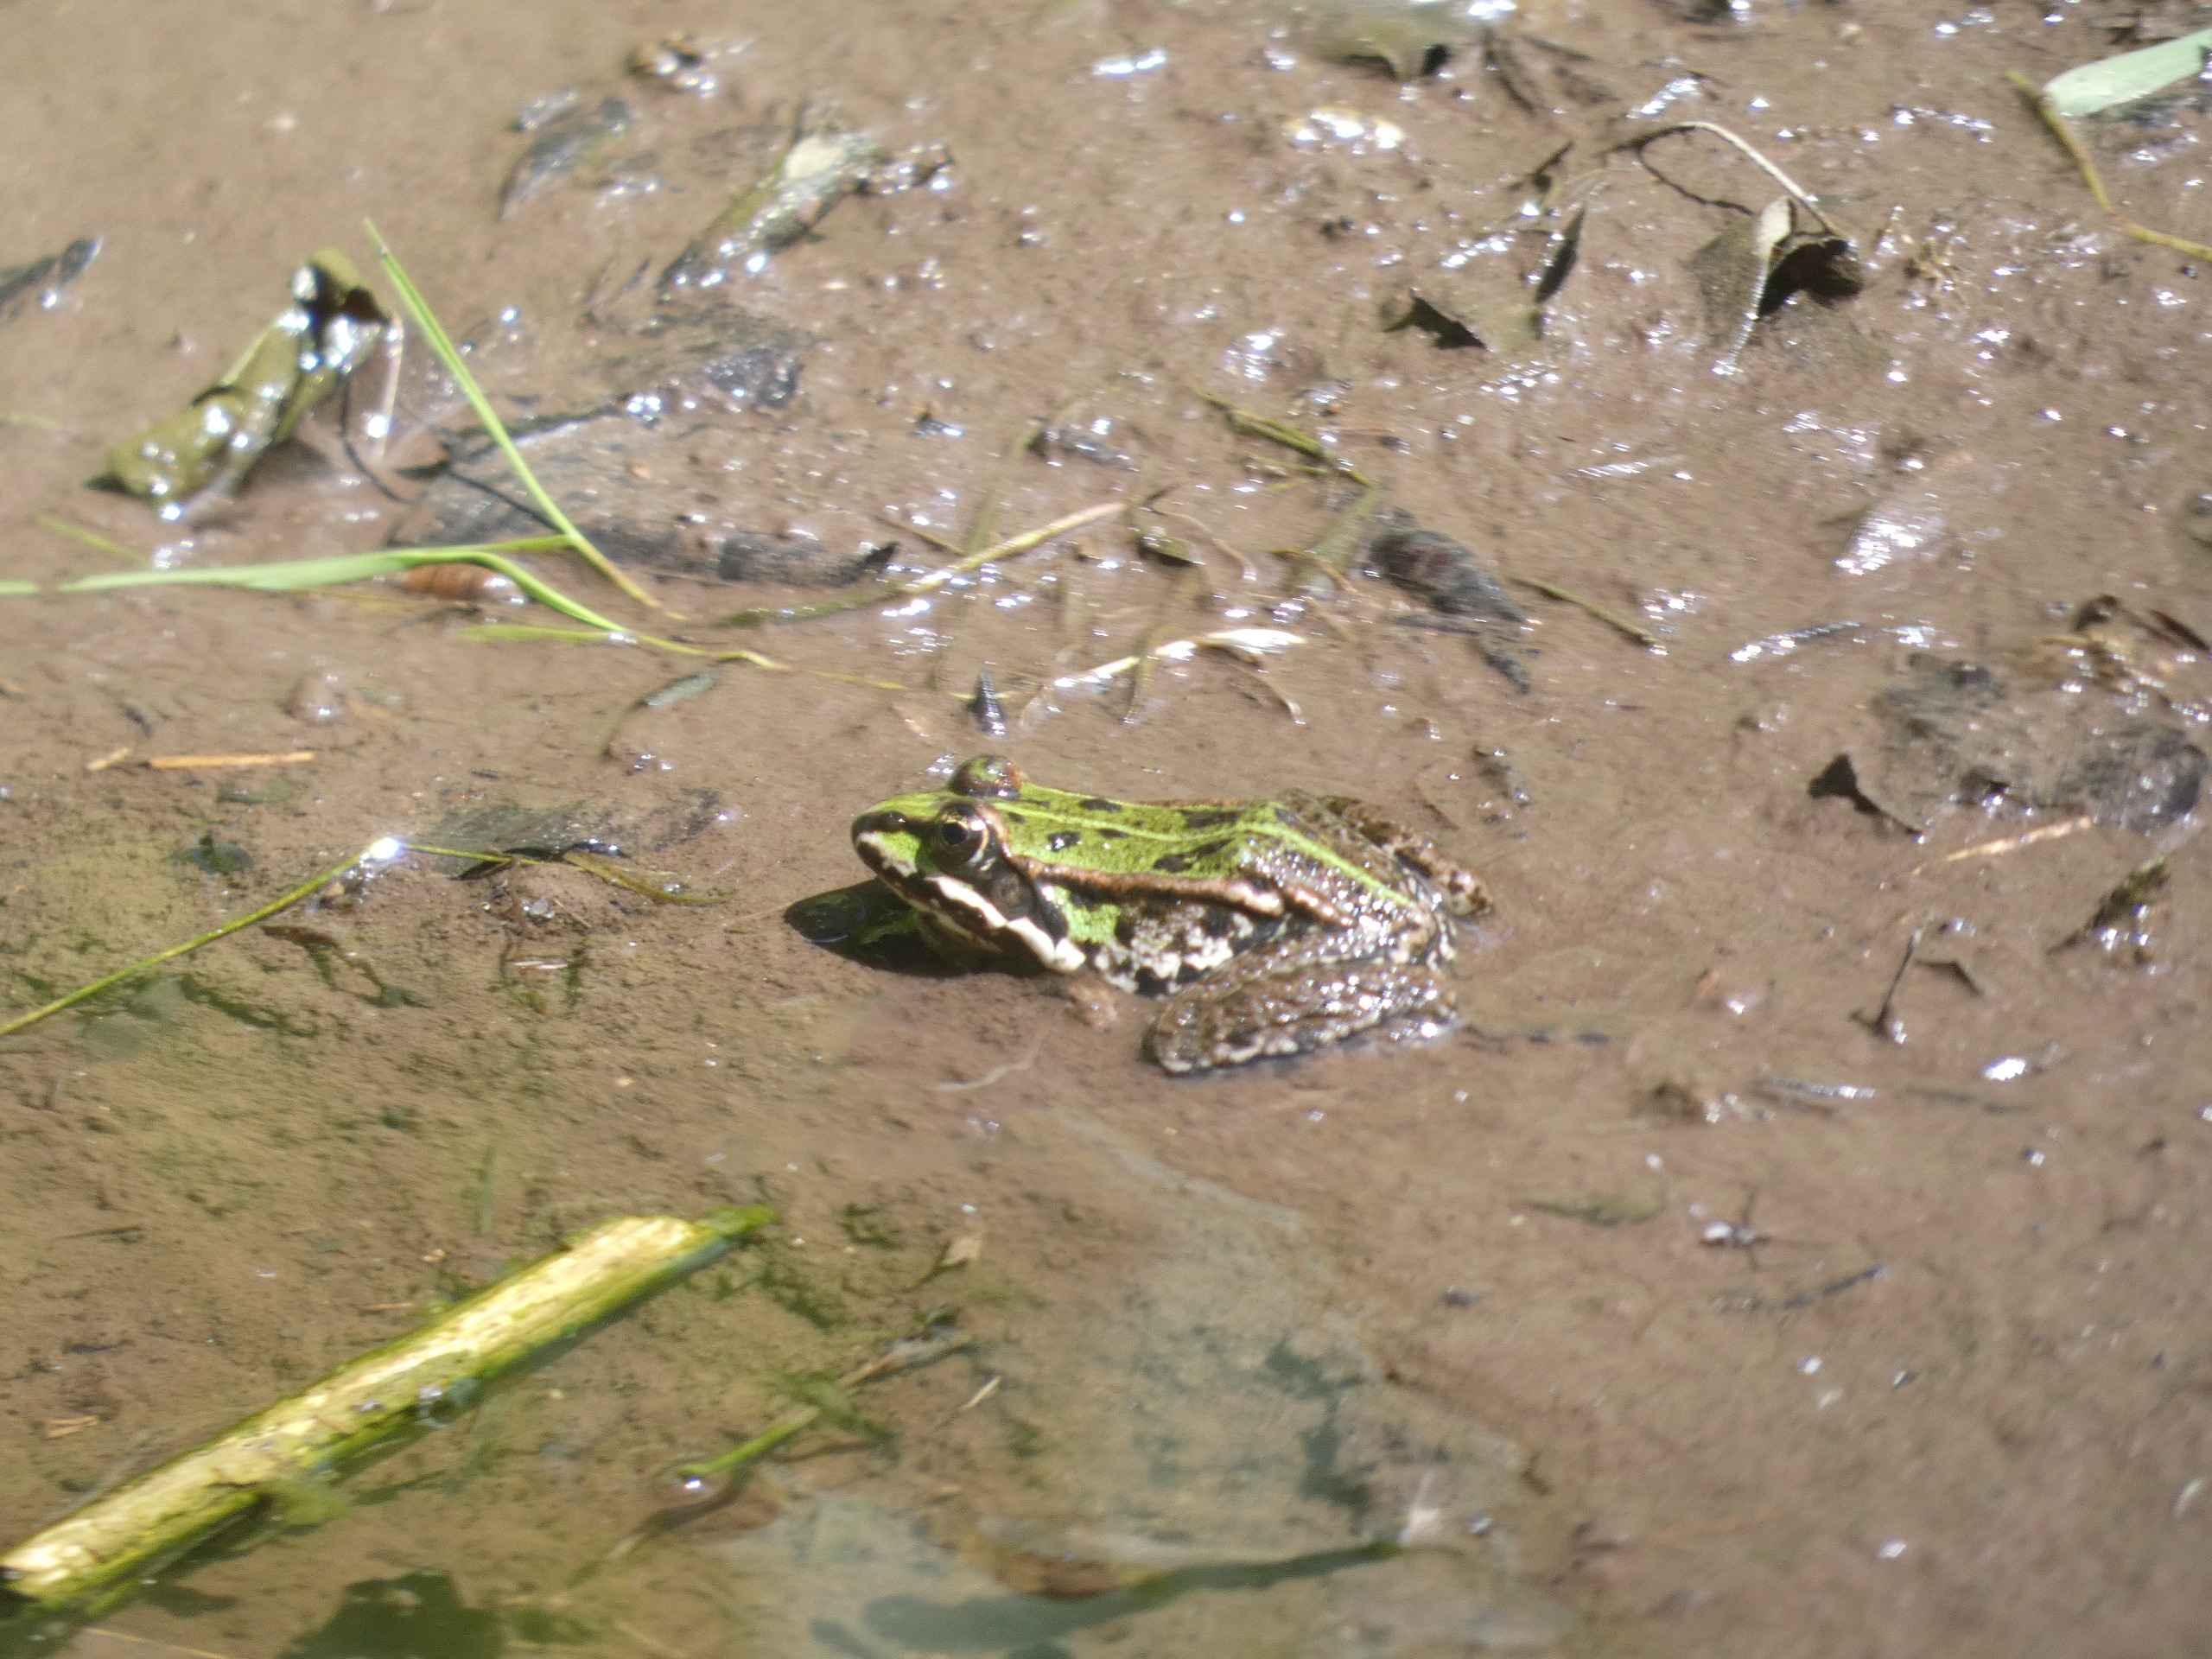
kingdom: Animalia
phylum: Chordata
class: Amphibia
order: Anura
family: Ranidae
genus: Pelophylax
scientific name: Pelophylax lessonae
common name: Grøn frø
